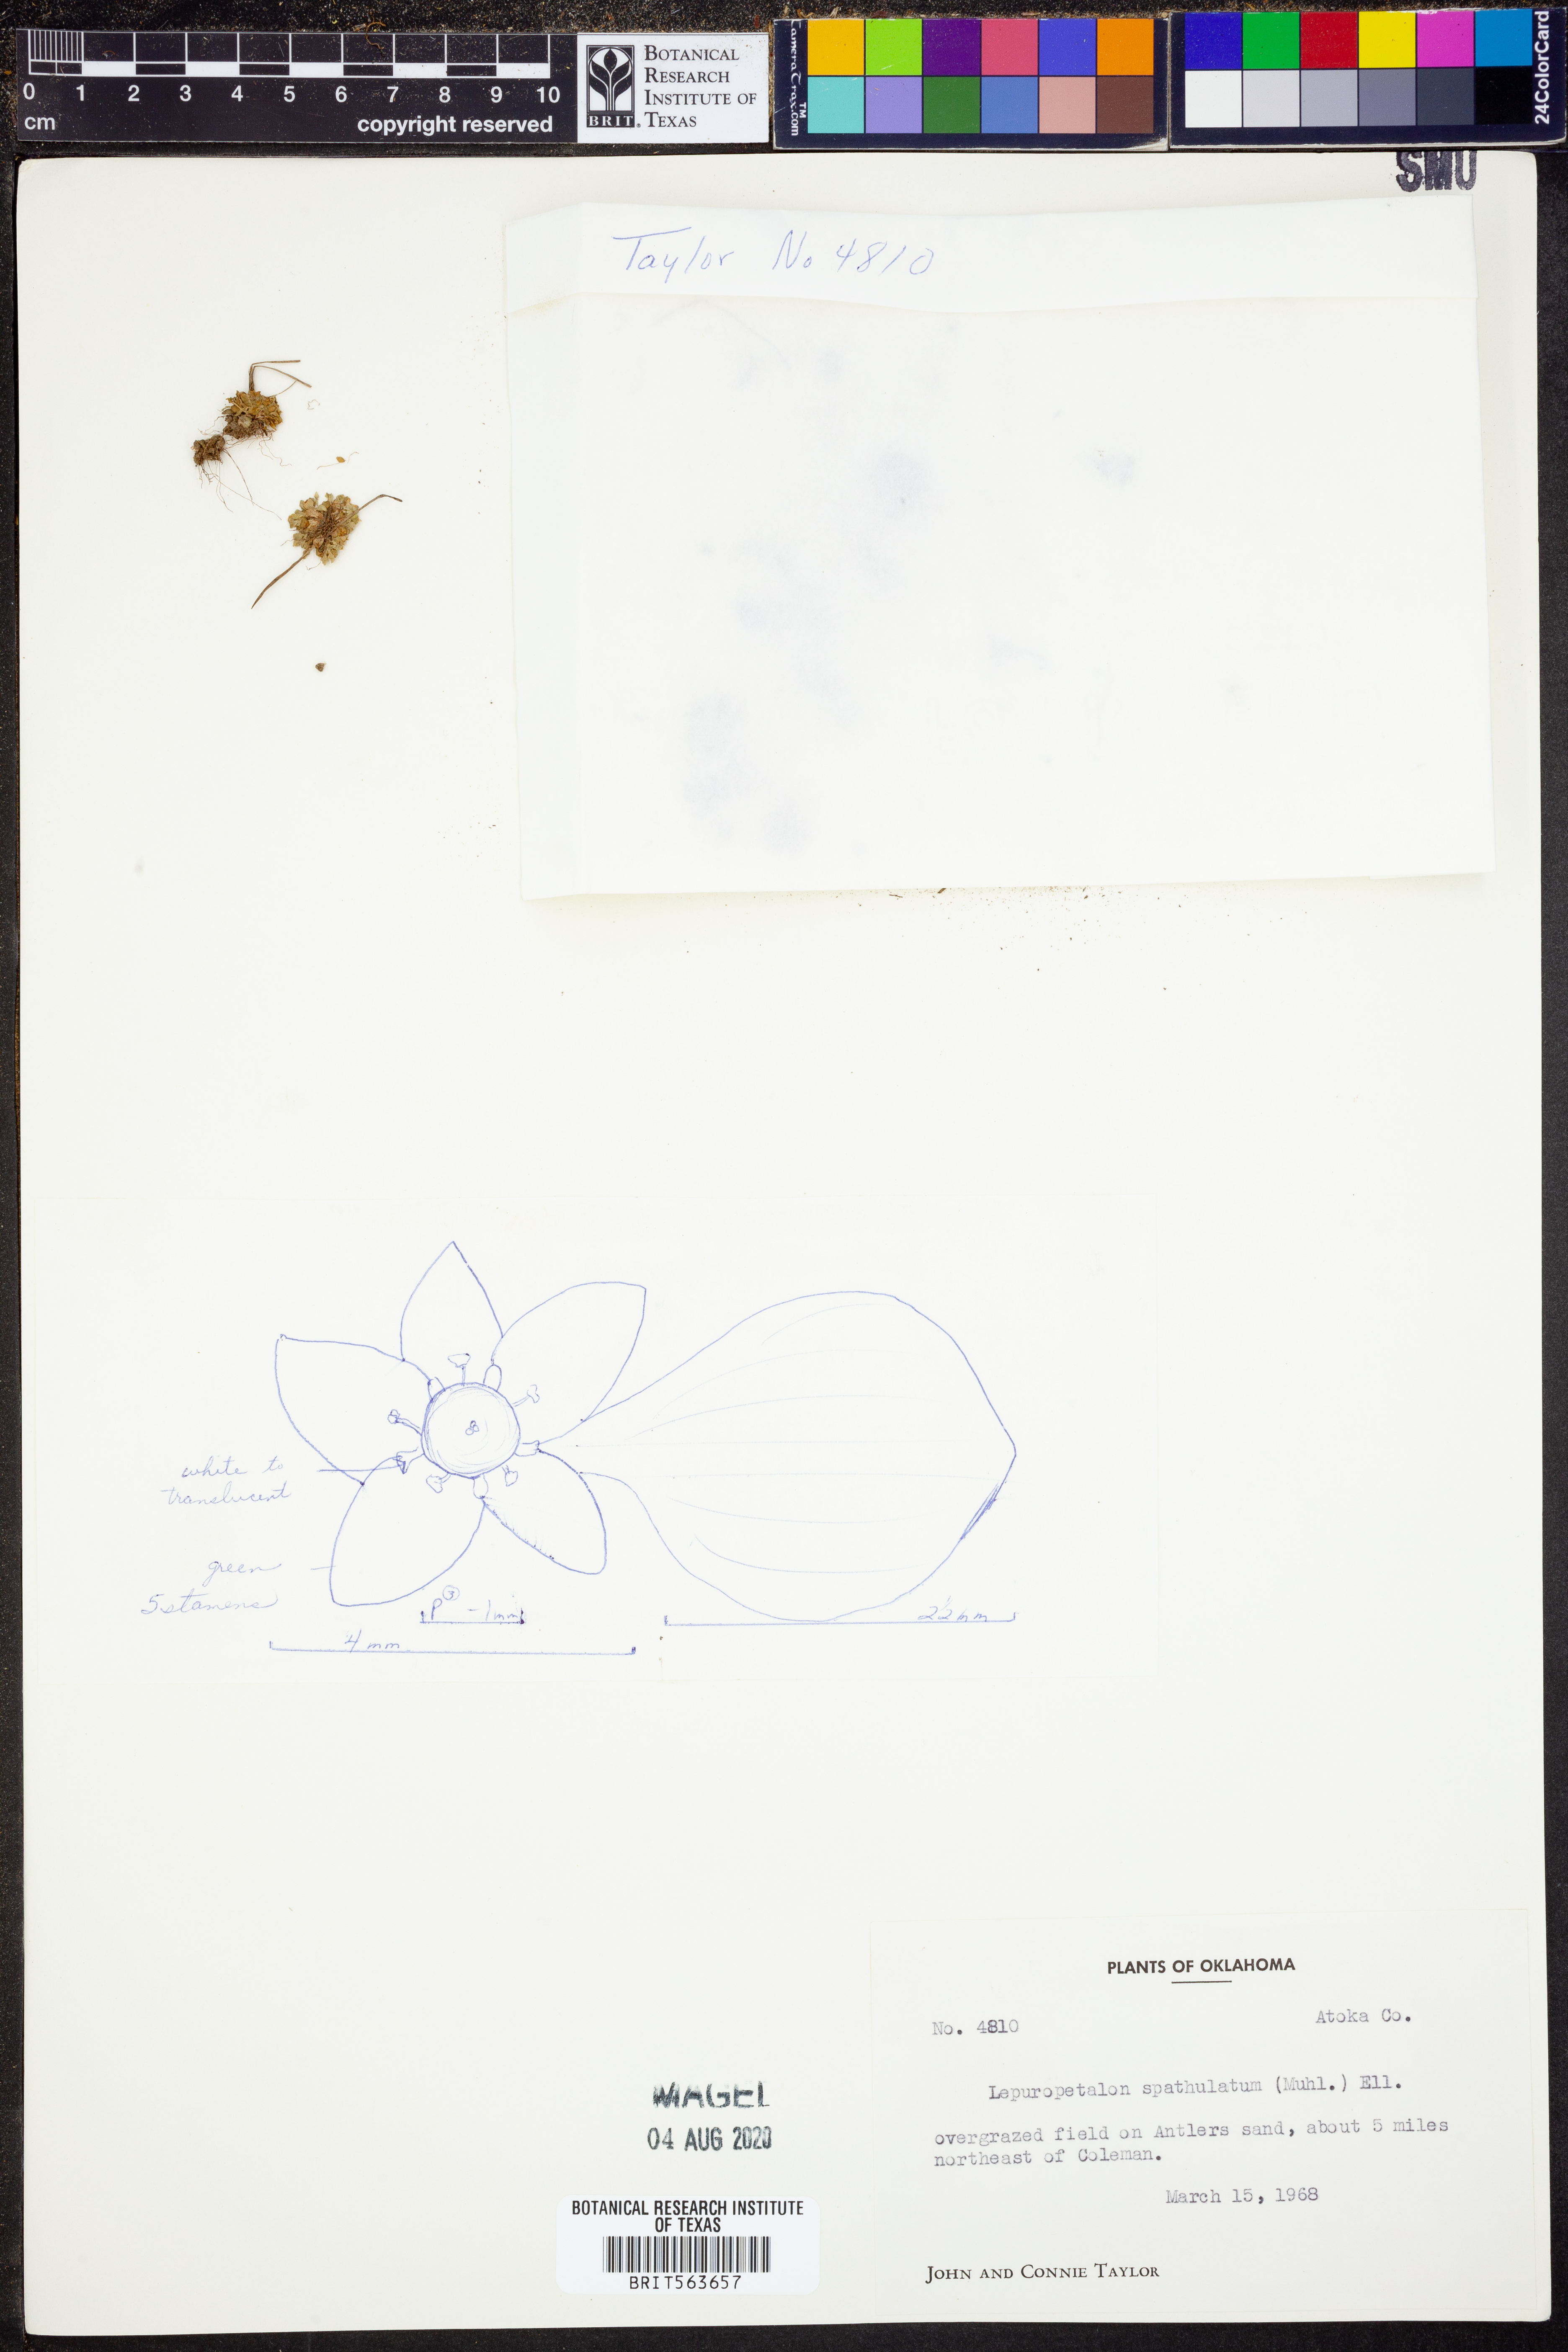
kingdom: Plantae
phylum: Tracheophyta
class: Magnoliopsida
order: Celastrales
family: Parnassiaceae
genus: Lepuropetalon
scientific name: Lepuropetalon spathulatum
